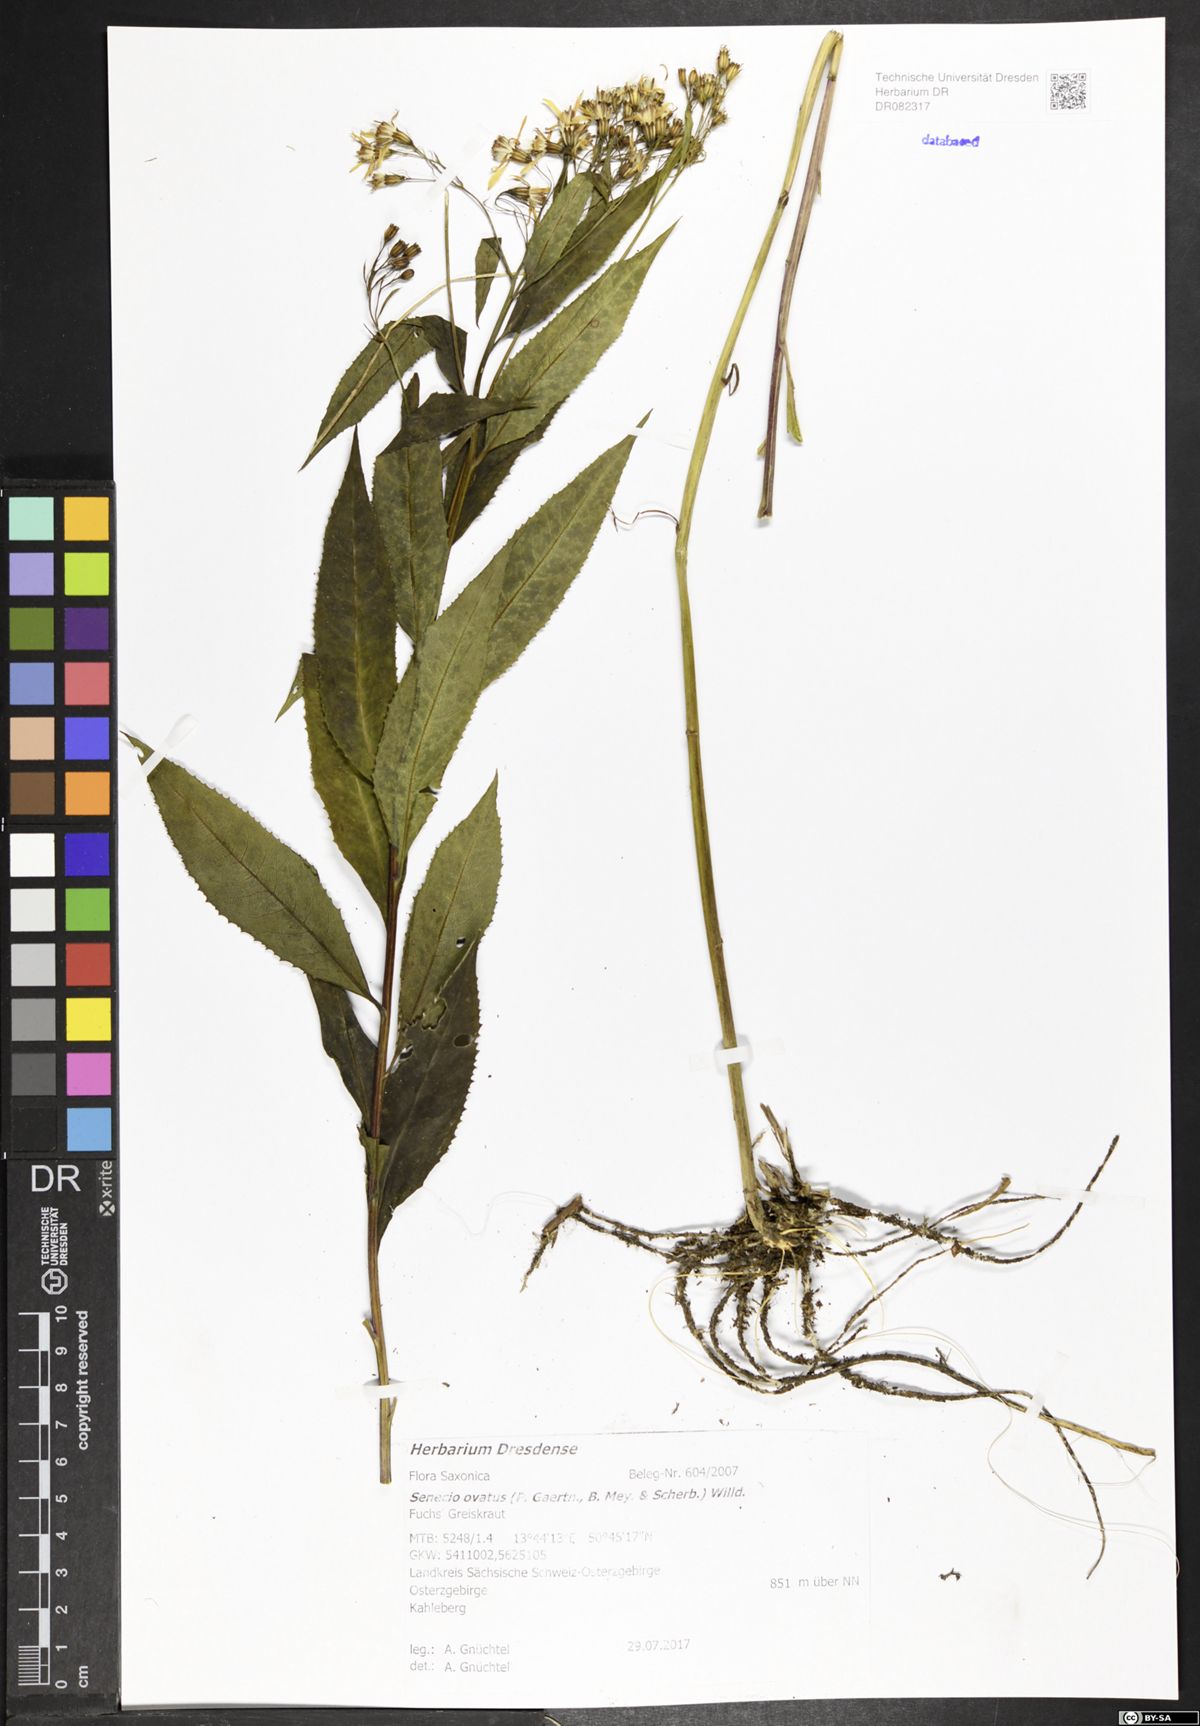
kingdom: Plantae
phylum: Tracheophyta
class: Magnoliopsida
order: Asterales
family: Asteraceae
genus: Senecio
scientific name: Senecio ovatus
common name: Wood ragwort
